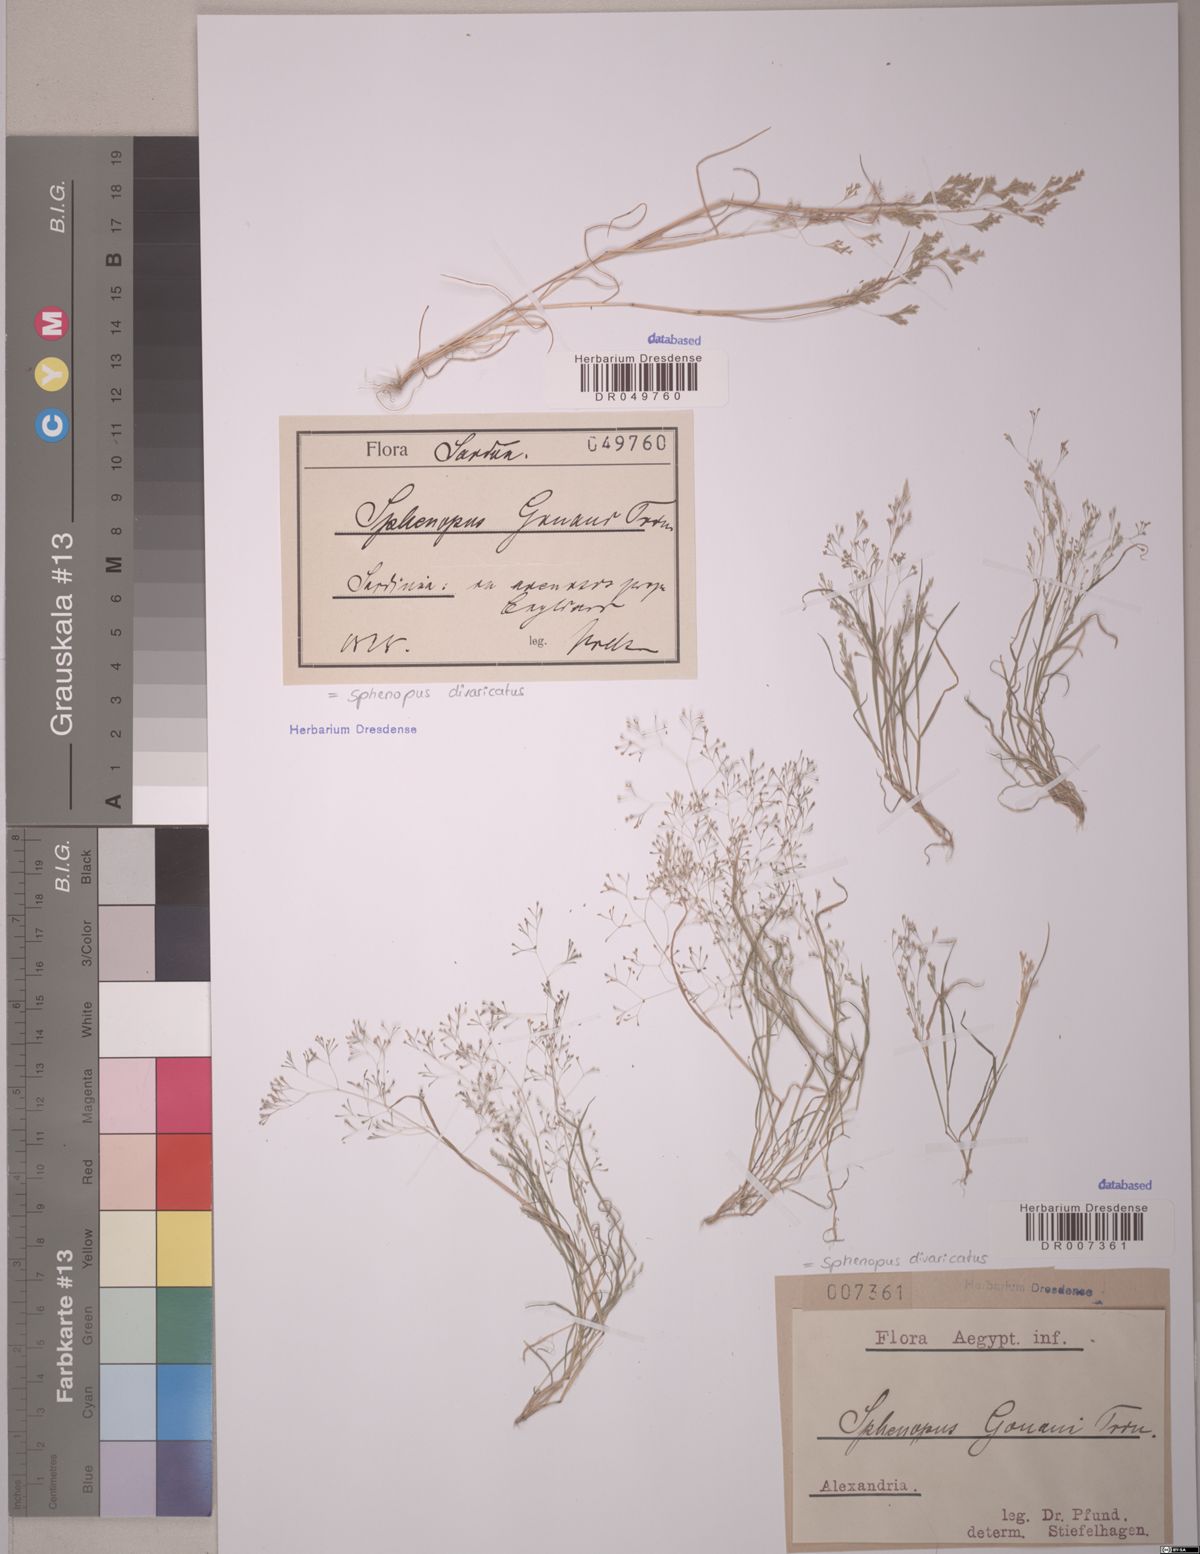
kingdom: Plantae
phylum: Tracheophyta
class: Liliopsida
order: Poales
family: Poaceae
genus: Sphenopus
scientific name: Sphenopus divaricatus
